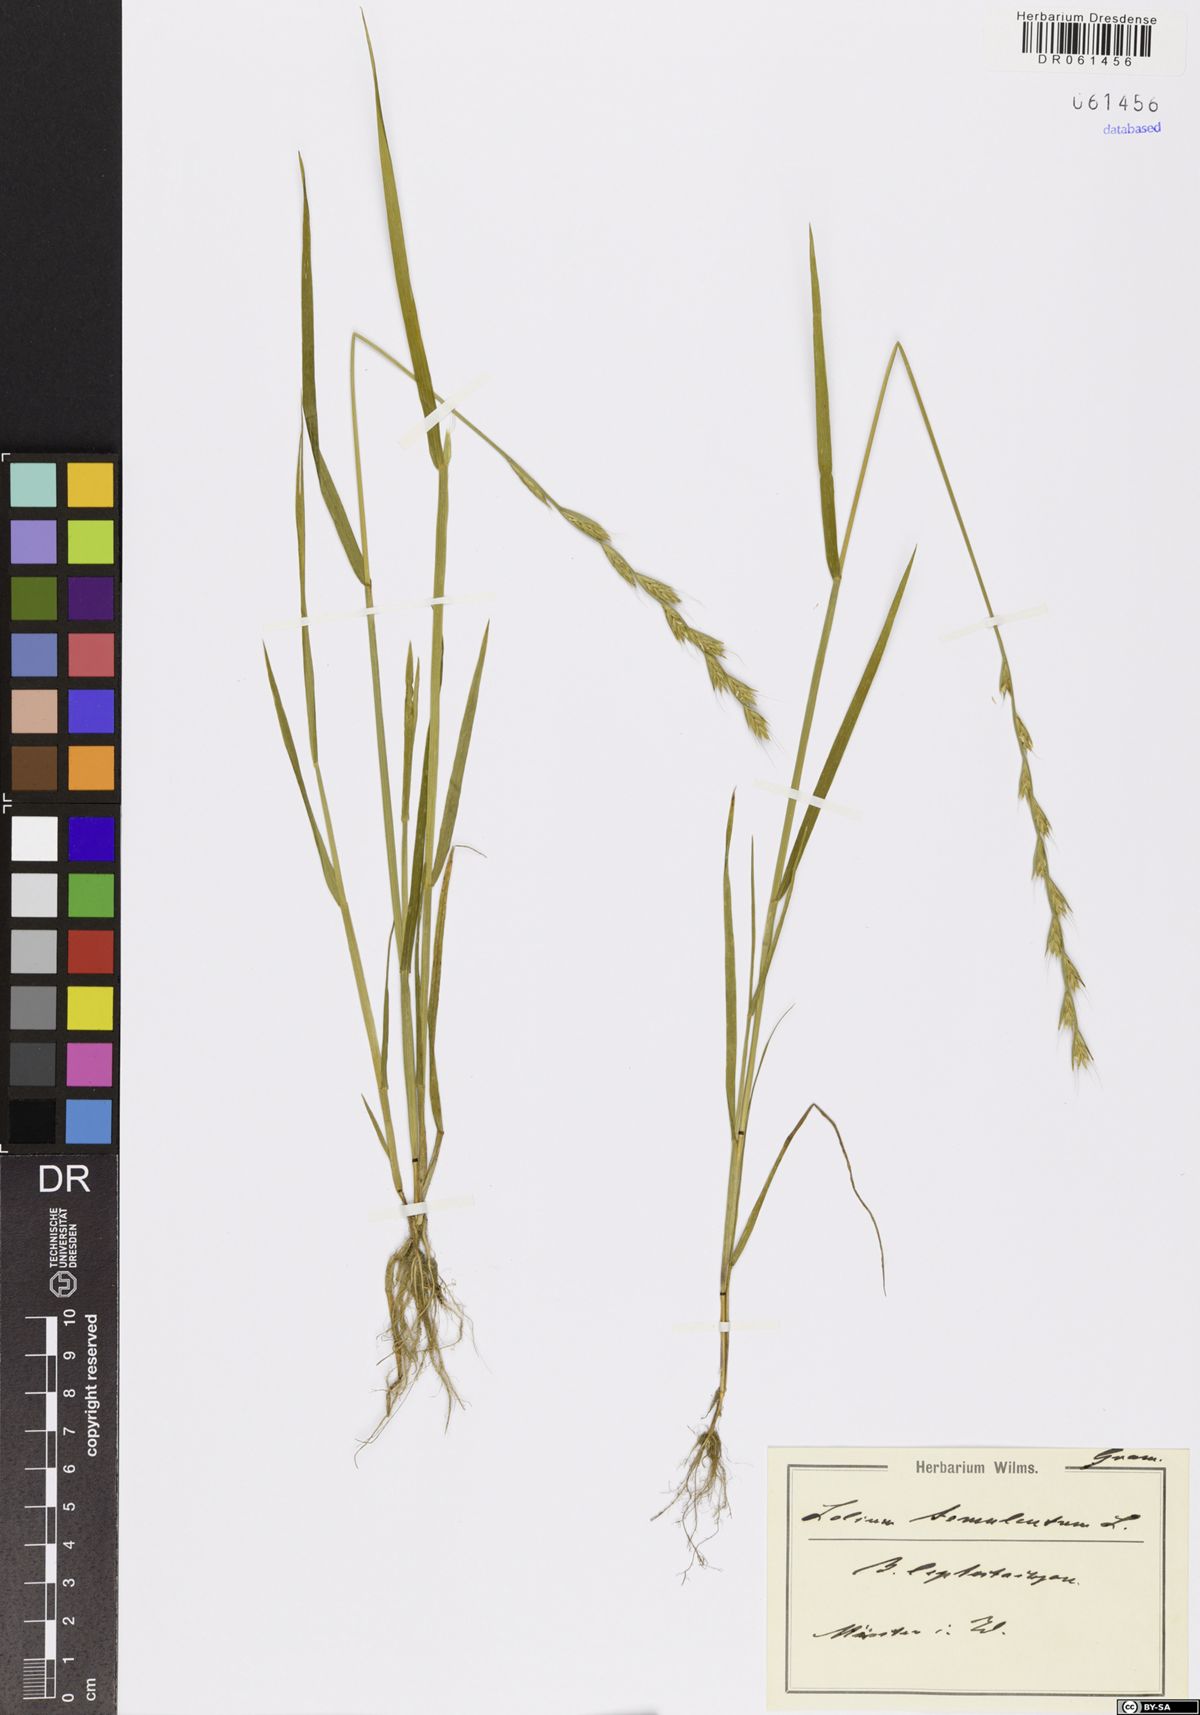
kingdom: Plantae
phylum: Tracheophyta
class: Liliopsida
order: Poales
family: Poaceae
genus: Lolium
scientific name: Lolium temulentum
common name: Darnel
